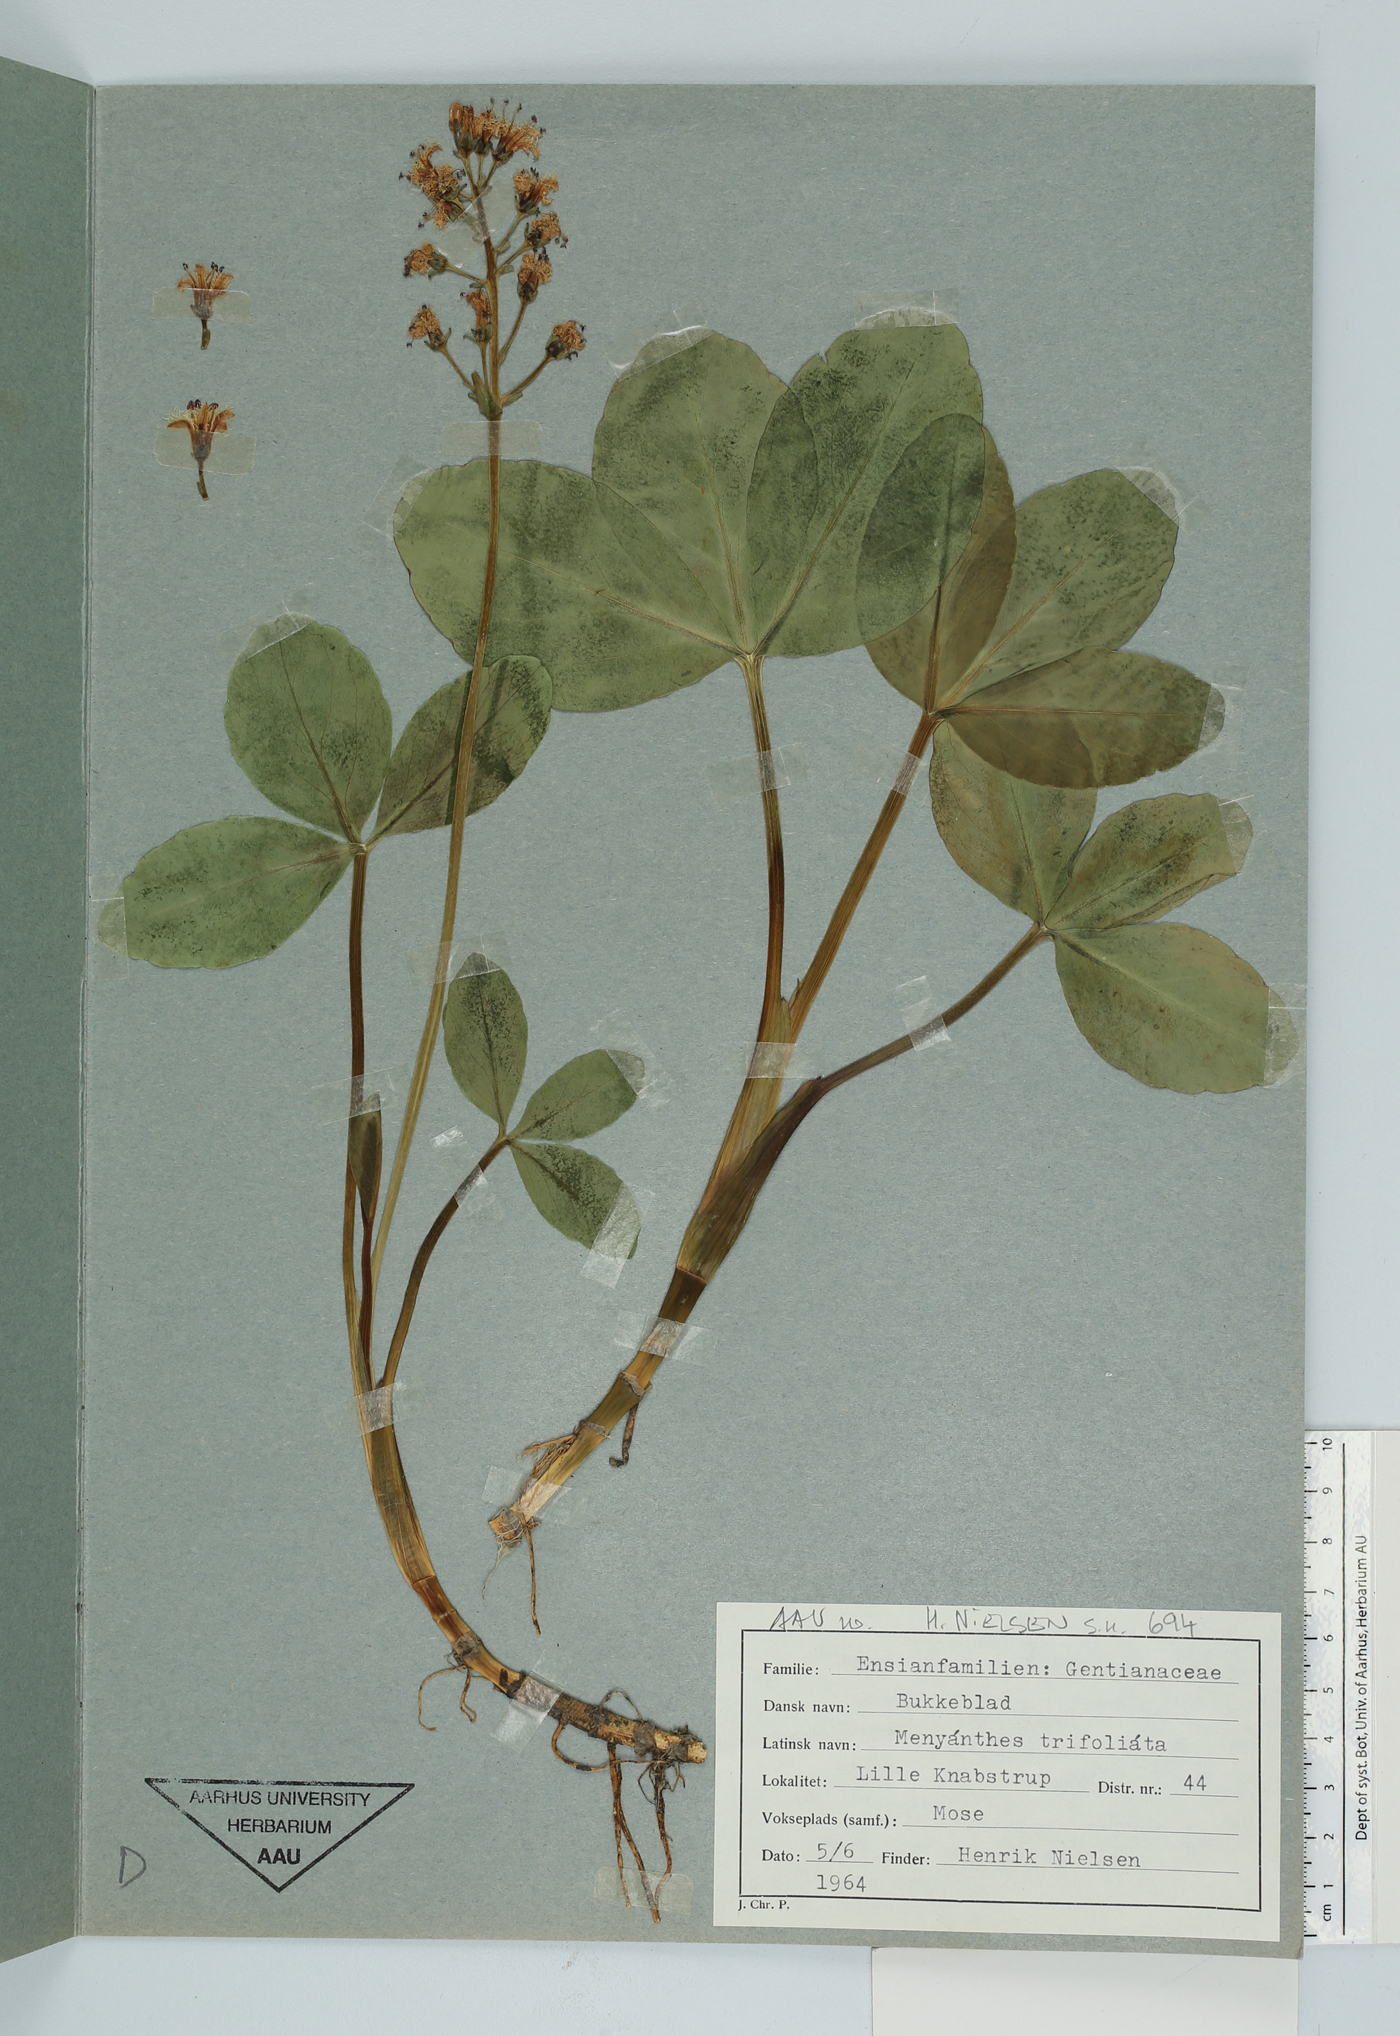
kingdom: Plantae
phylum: Tracheophyta
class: Magnoliopsida
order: Asterales
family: Menyanthaceae
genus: Menyanthes
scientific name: Menyanthes trifoliata
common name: Bogbean
